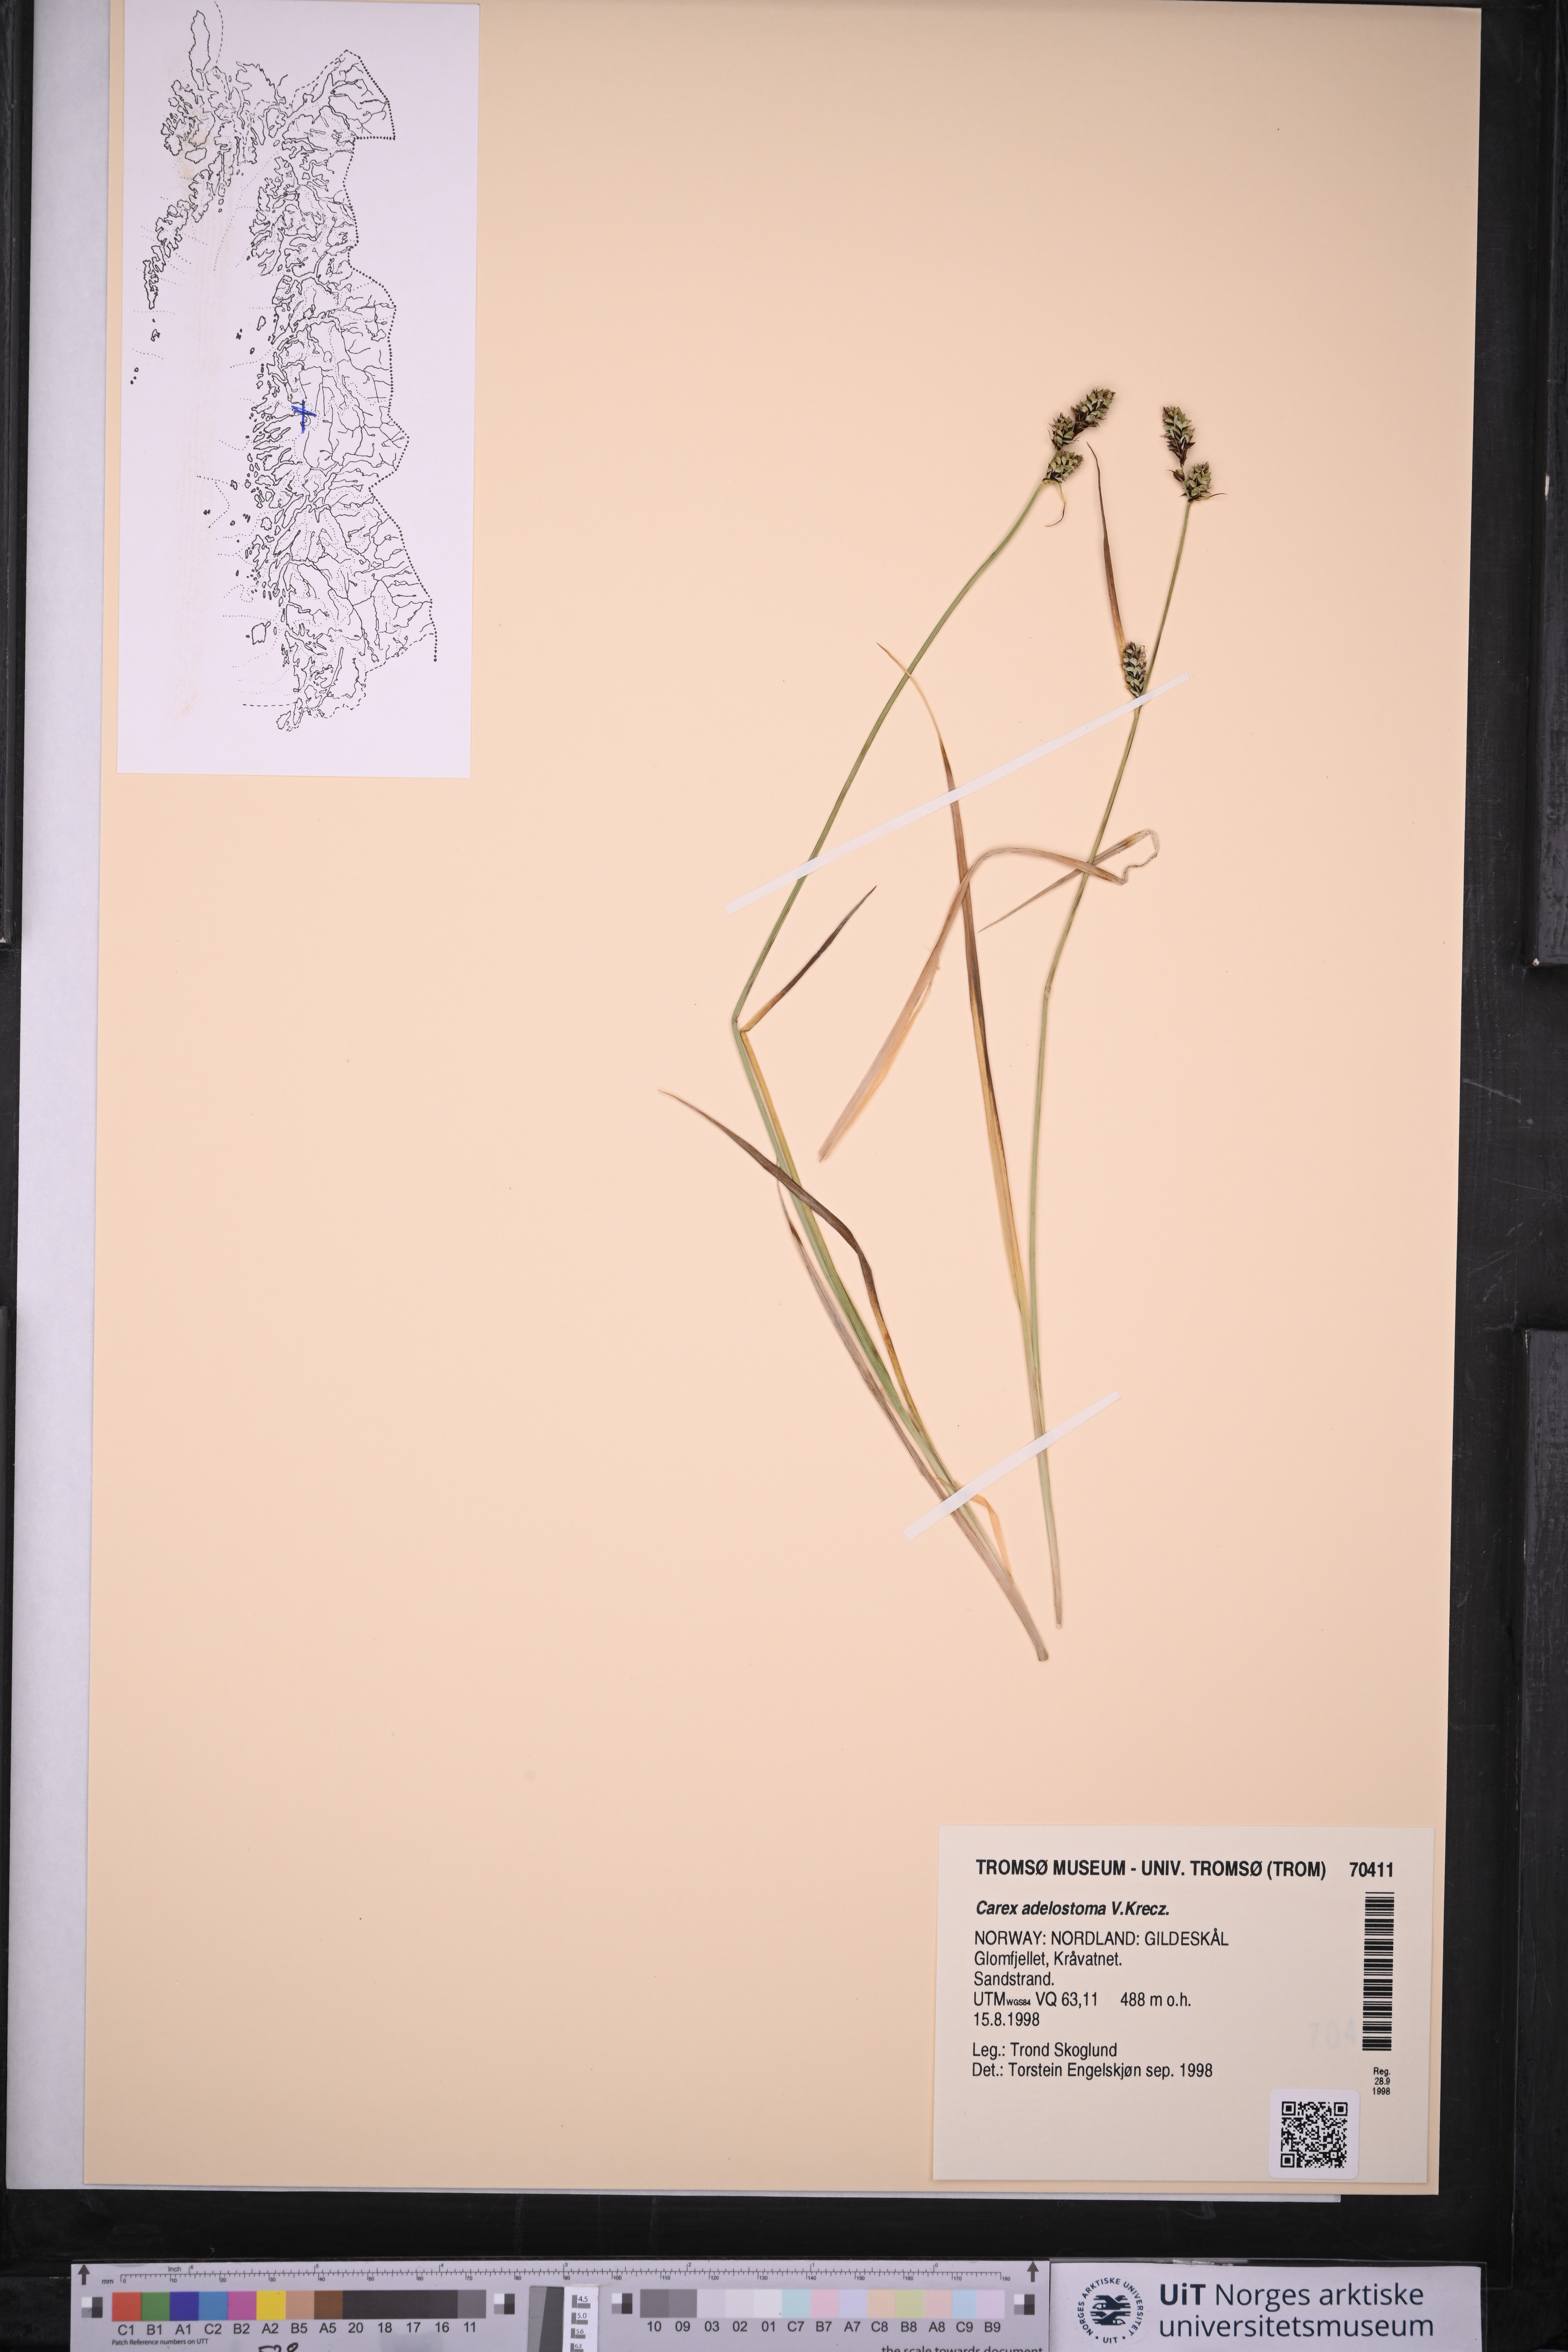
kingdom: Plantae
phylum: Tracheophyta
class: Liliopsida
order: Poales
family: Cyperaceae
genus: Carex
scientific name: Carex adelostoma
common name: Circumpolar sedge
